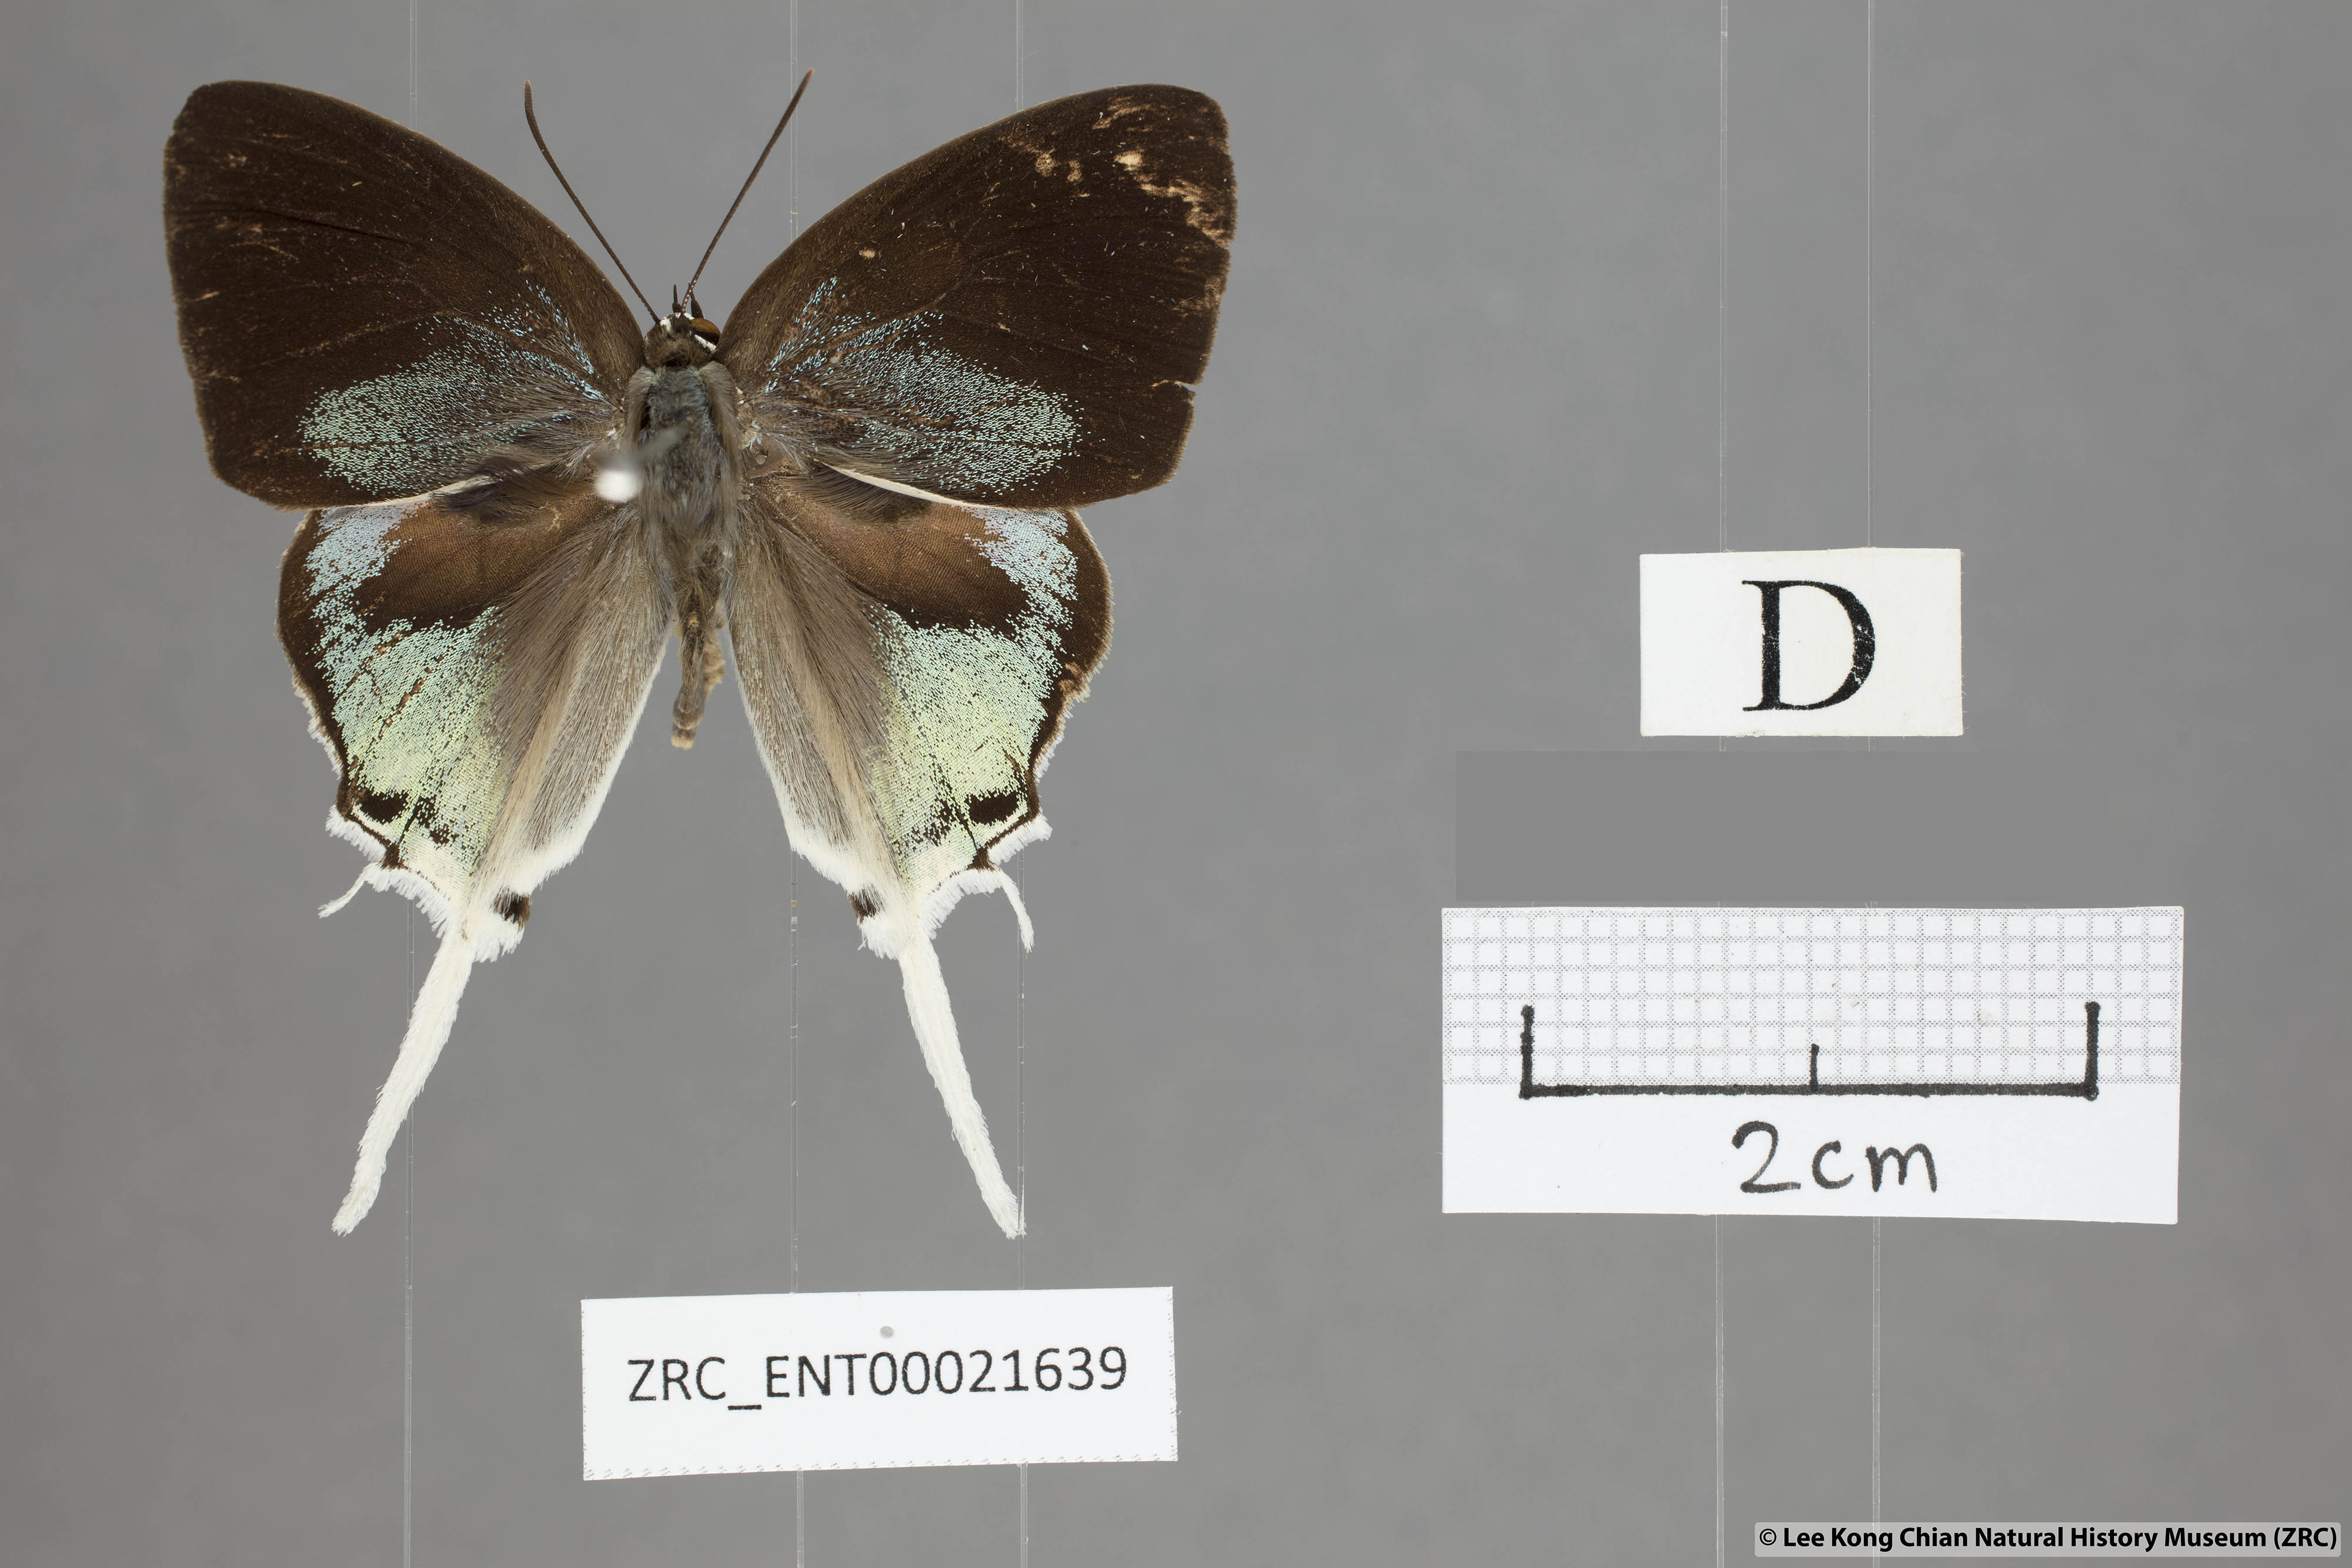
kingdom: Animalia
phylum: Arthropoda
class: Insecta
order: Lepidoptera
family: Lycaenidae
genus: Manto
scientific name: Manto hypoleuca
